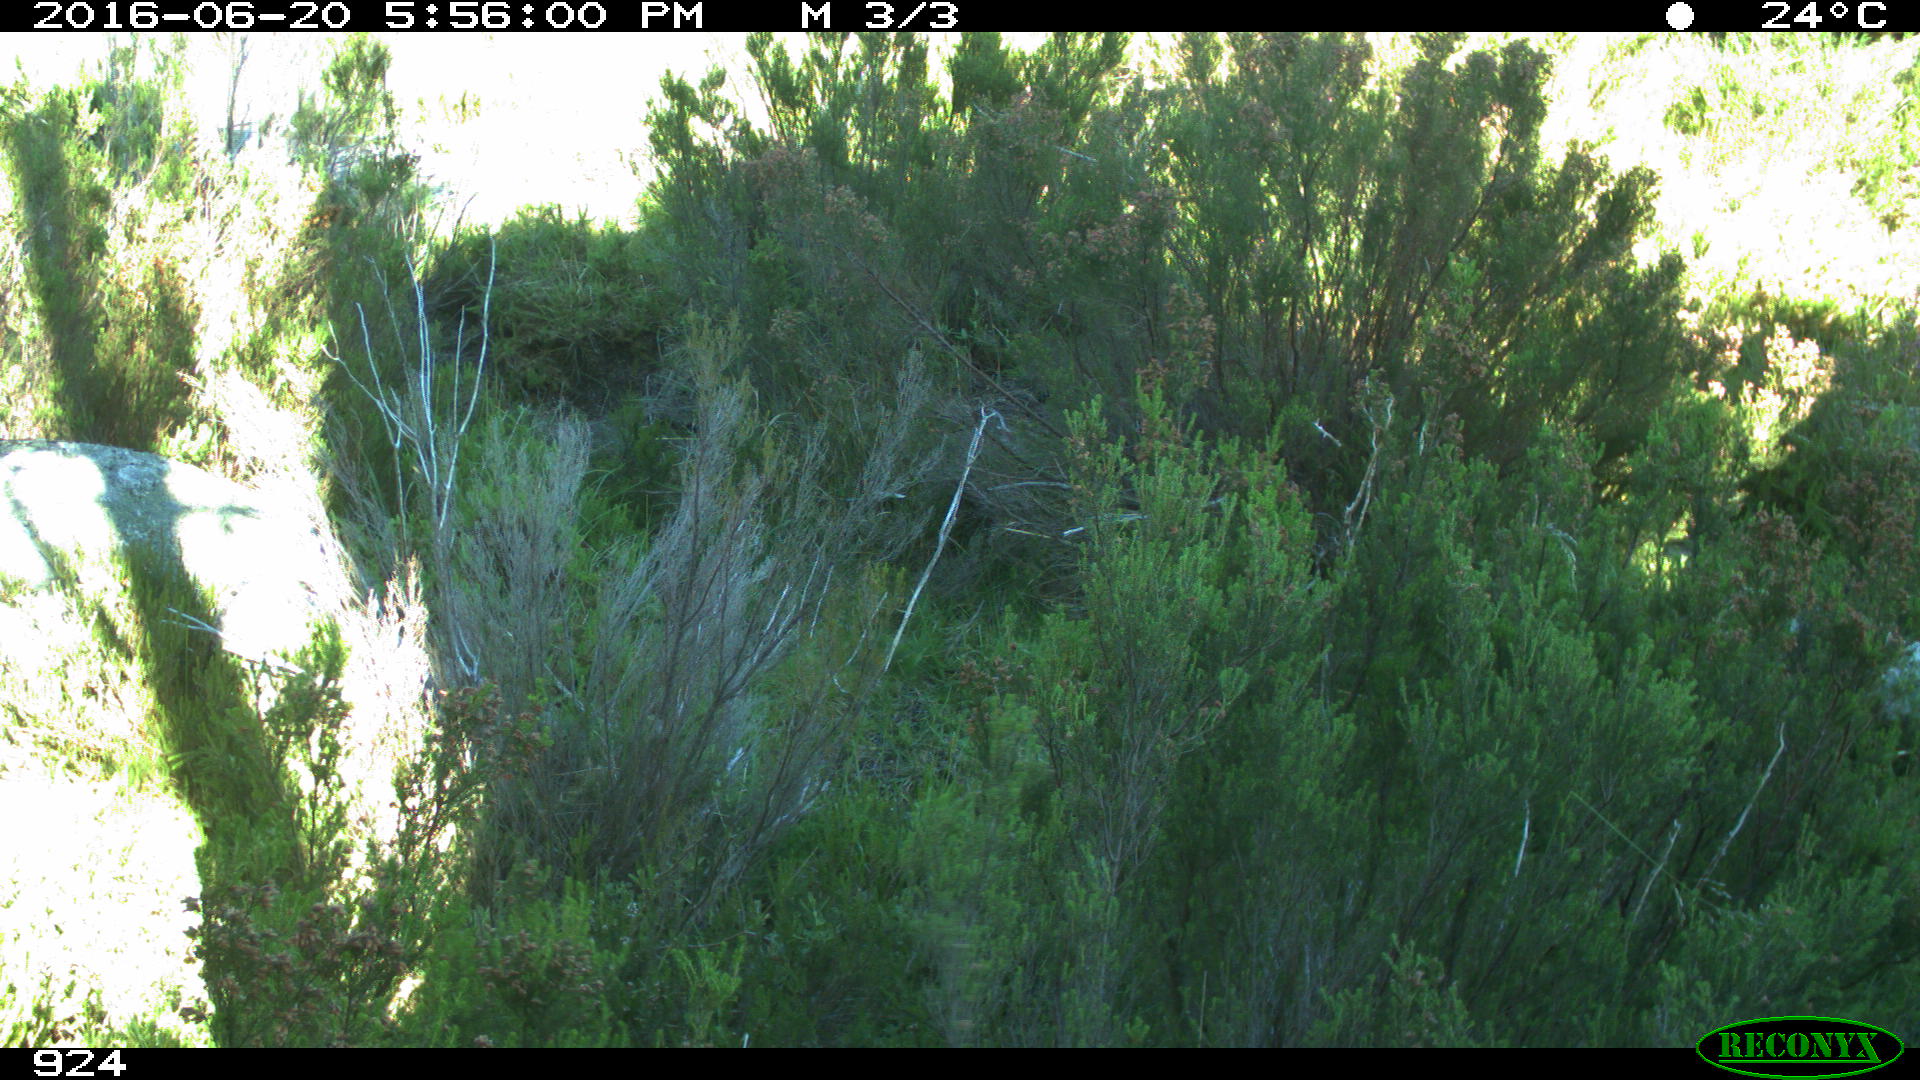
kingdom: Animalia
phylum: Chordata
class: Mammalia
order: Perissodactyla
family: Equidae
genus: Equus
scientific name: Equus caballus
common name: Horse
